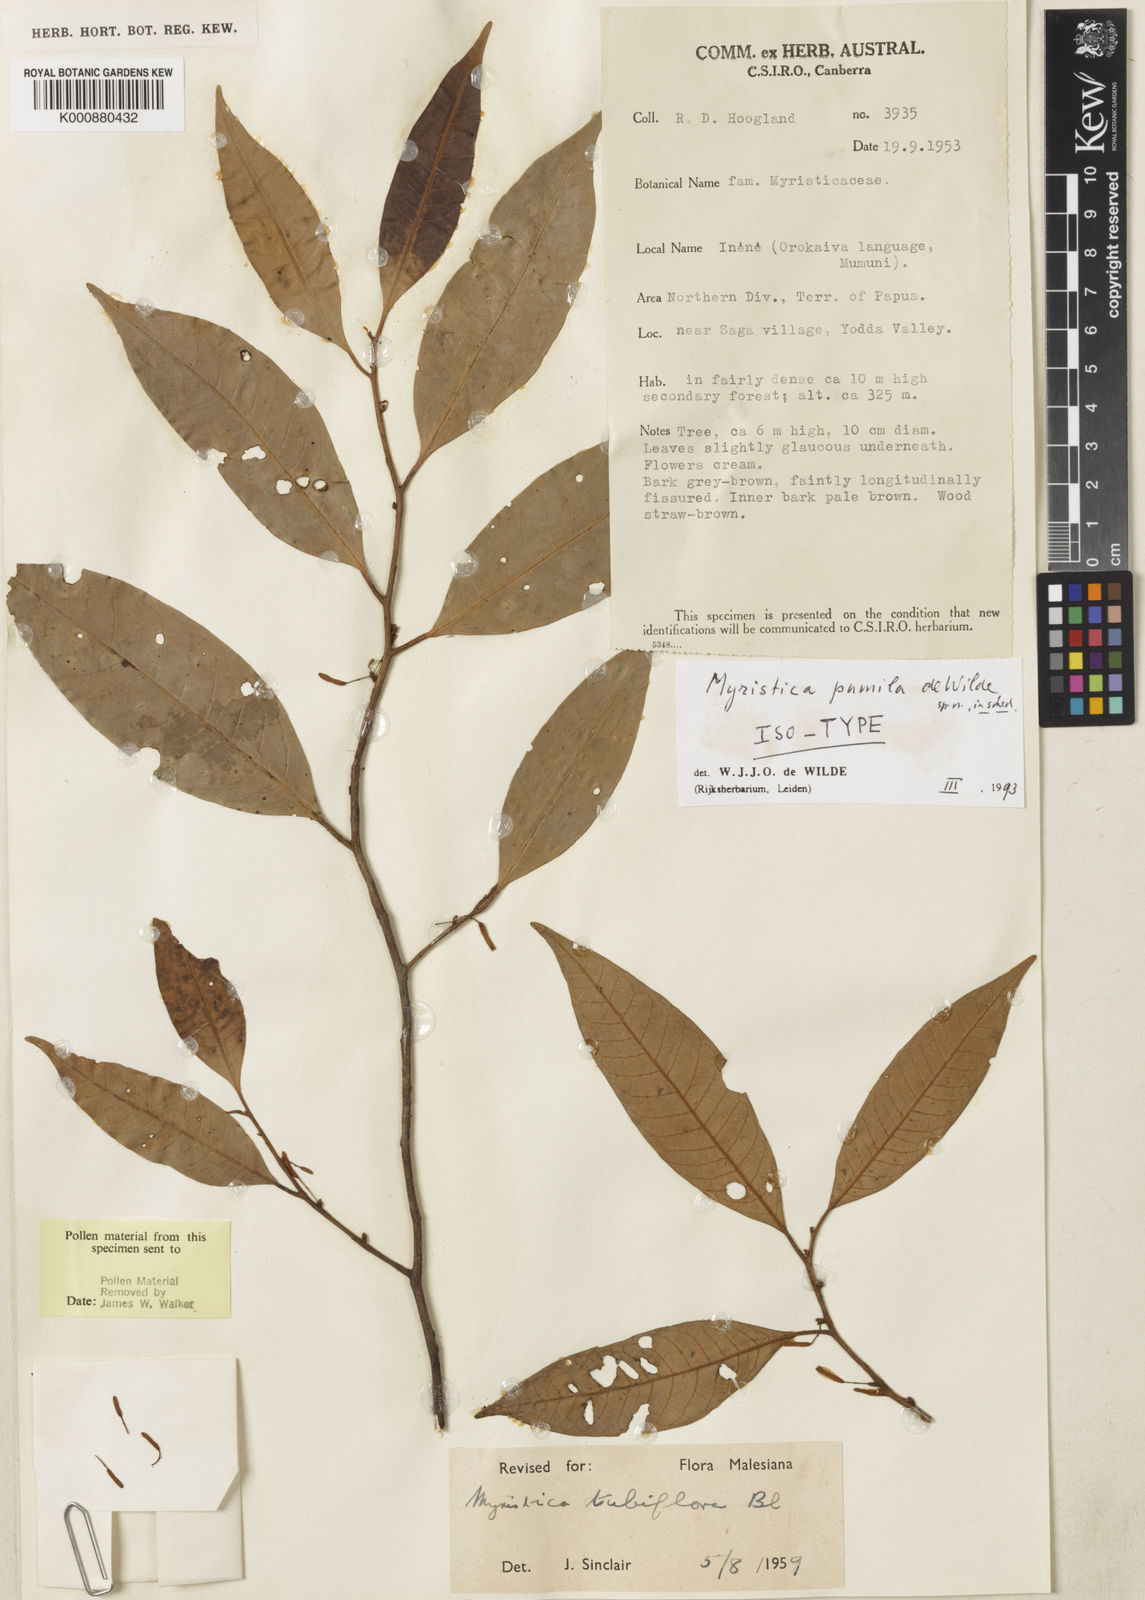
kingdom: Plantae
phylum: Tracheophyta
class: Magnoliopsida
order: Magnoliales
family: Myristicaceae
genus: Myristica
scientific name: Myristica pumila
